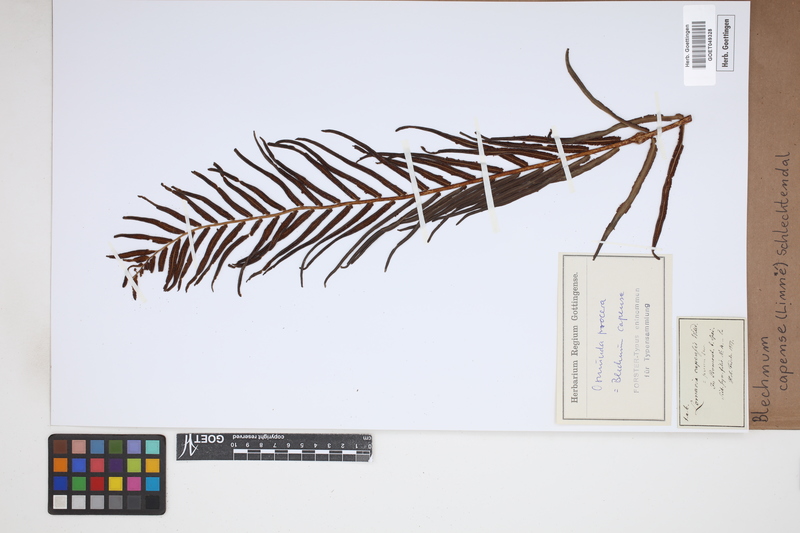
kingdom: Plantae
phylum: Tracheophyta
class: Polypodiopsida
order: Polypodiales
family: Blechnaceae
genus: Parablechnum
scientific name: Parablechnum capense
